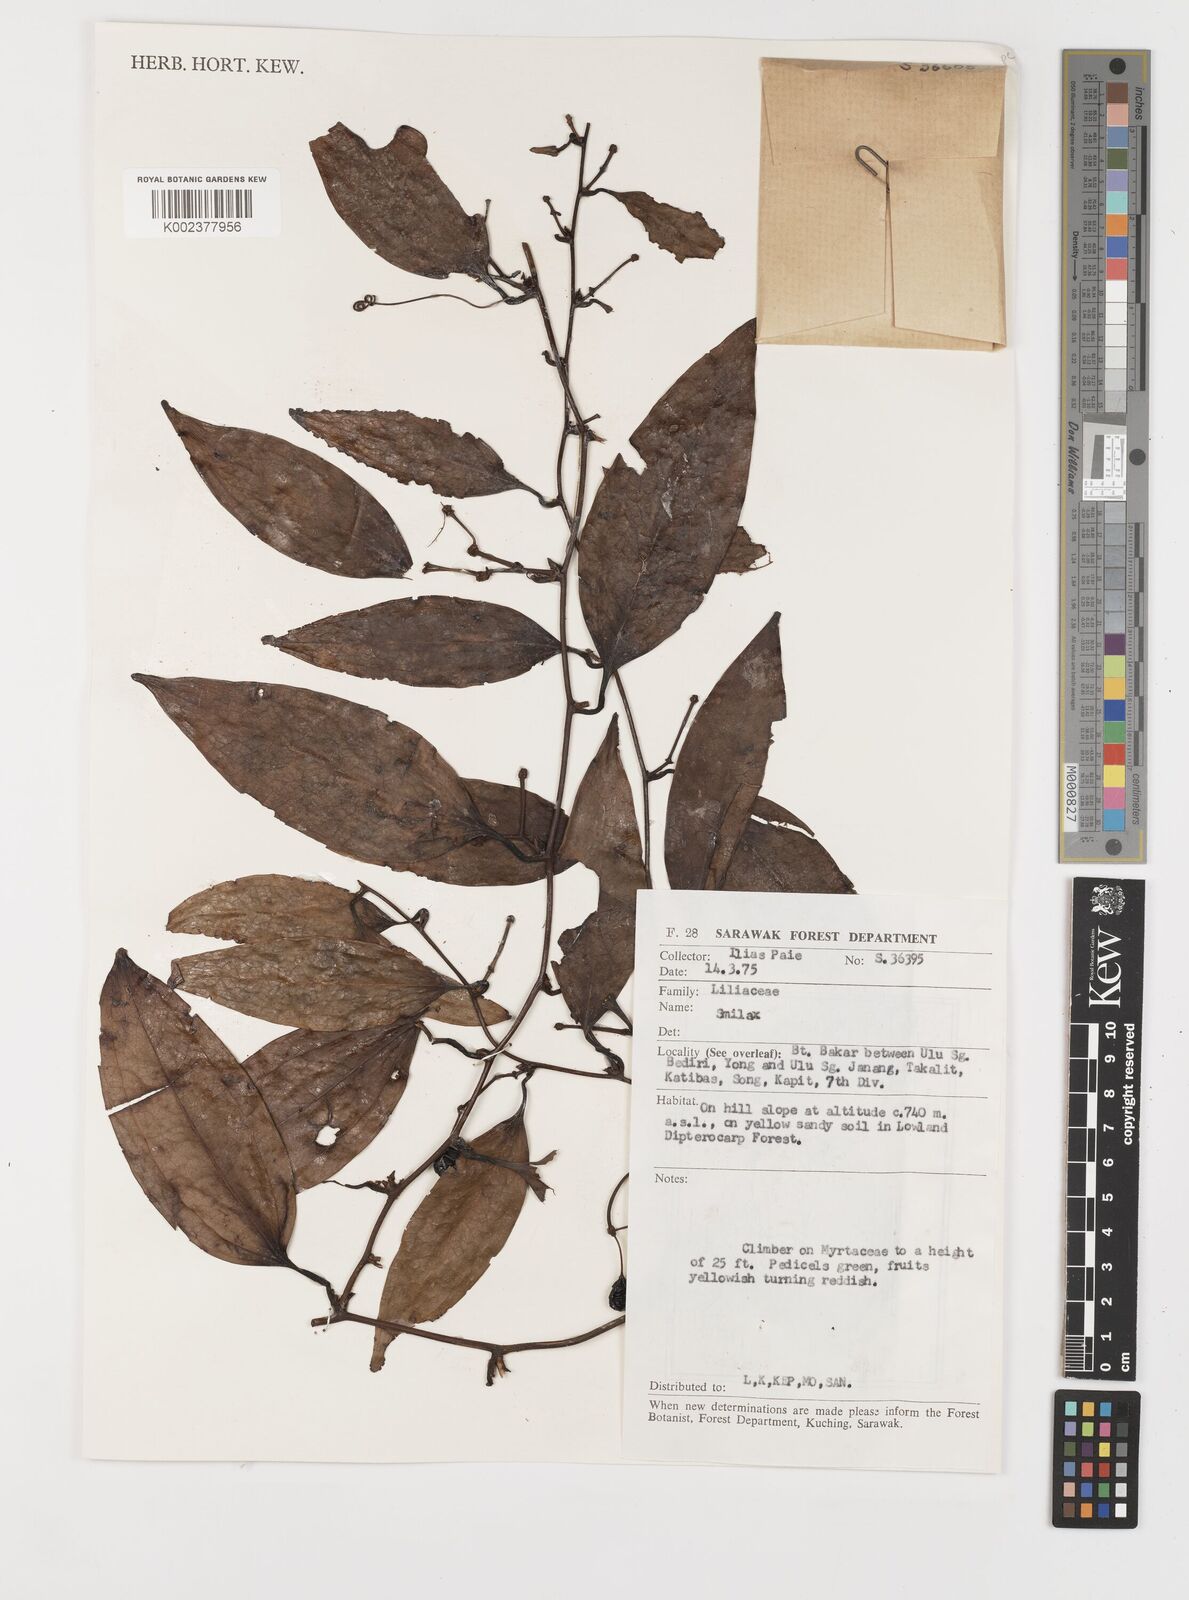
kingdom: Plantae
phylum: Tracheophyta
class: Liliopsida
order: Liliales
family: Smilacaceae
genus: Smilax
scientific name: Smilax
